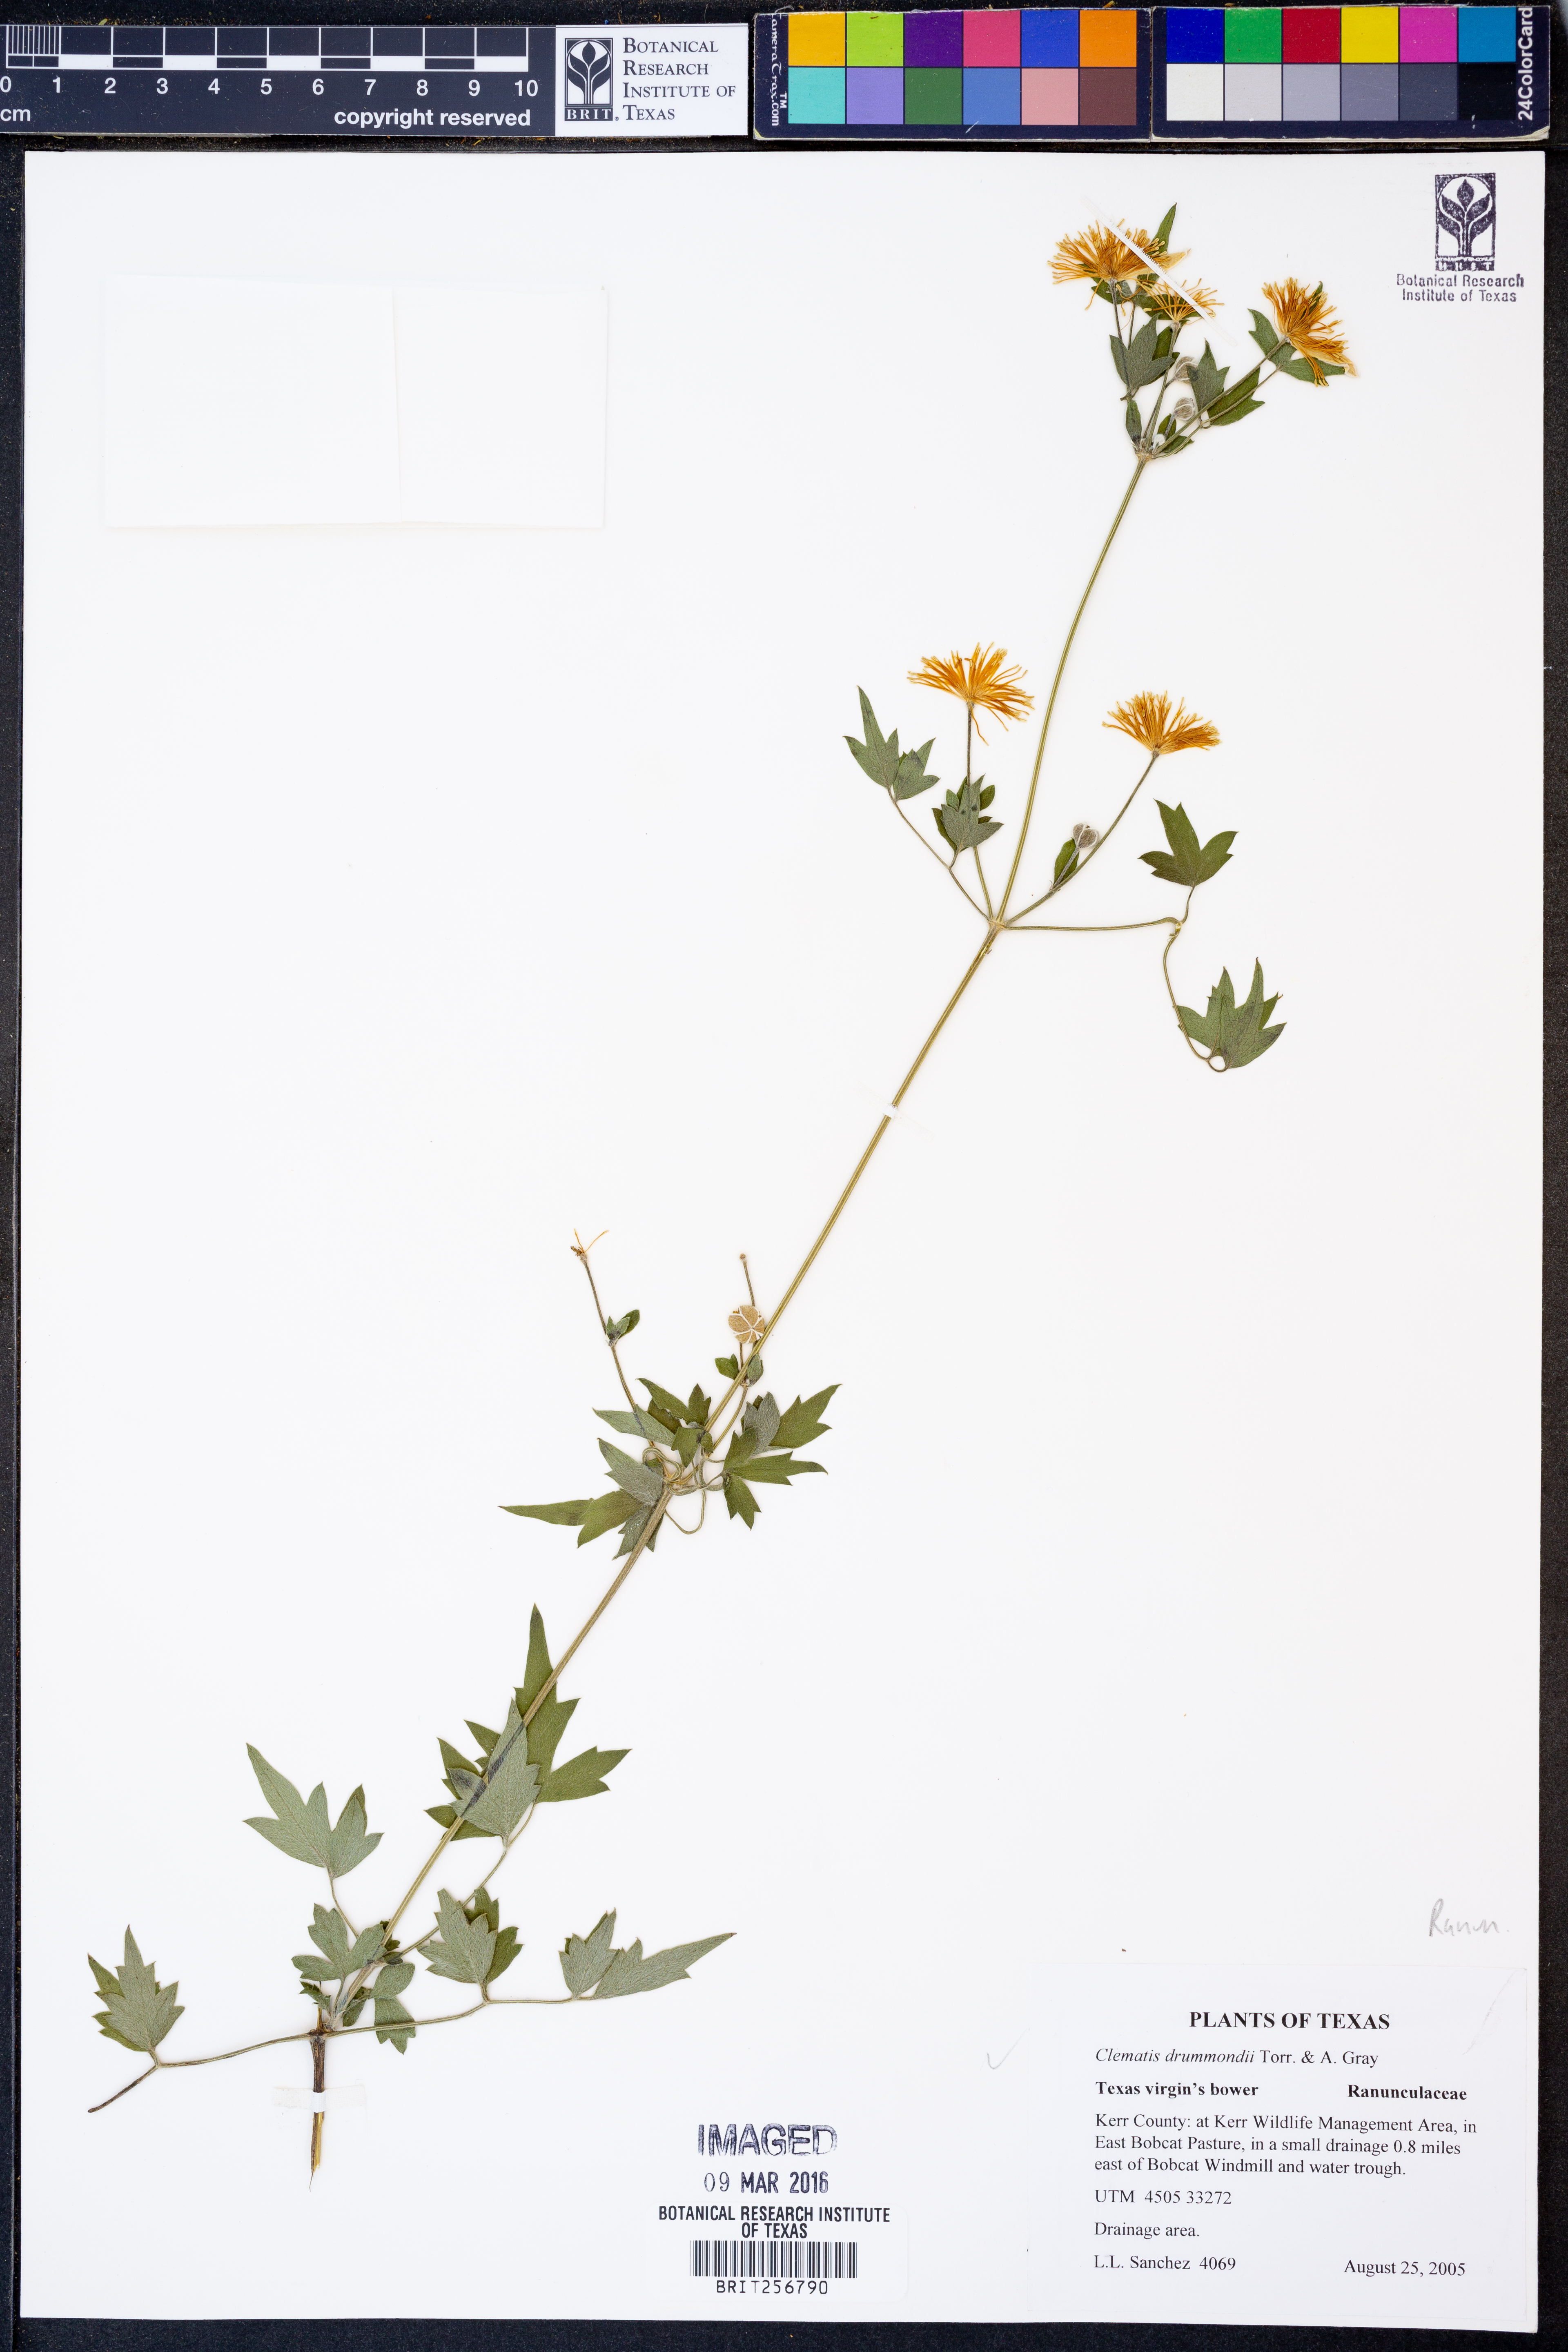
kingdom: Plantae
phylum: Tracheophyta
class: Magnoliopsida
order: Ranunculales
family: Ranunculaceae
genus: Clematis
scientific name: Clematis drummondii
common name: Texas virgin's bower
